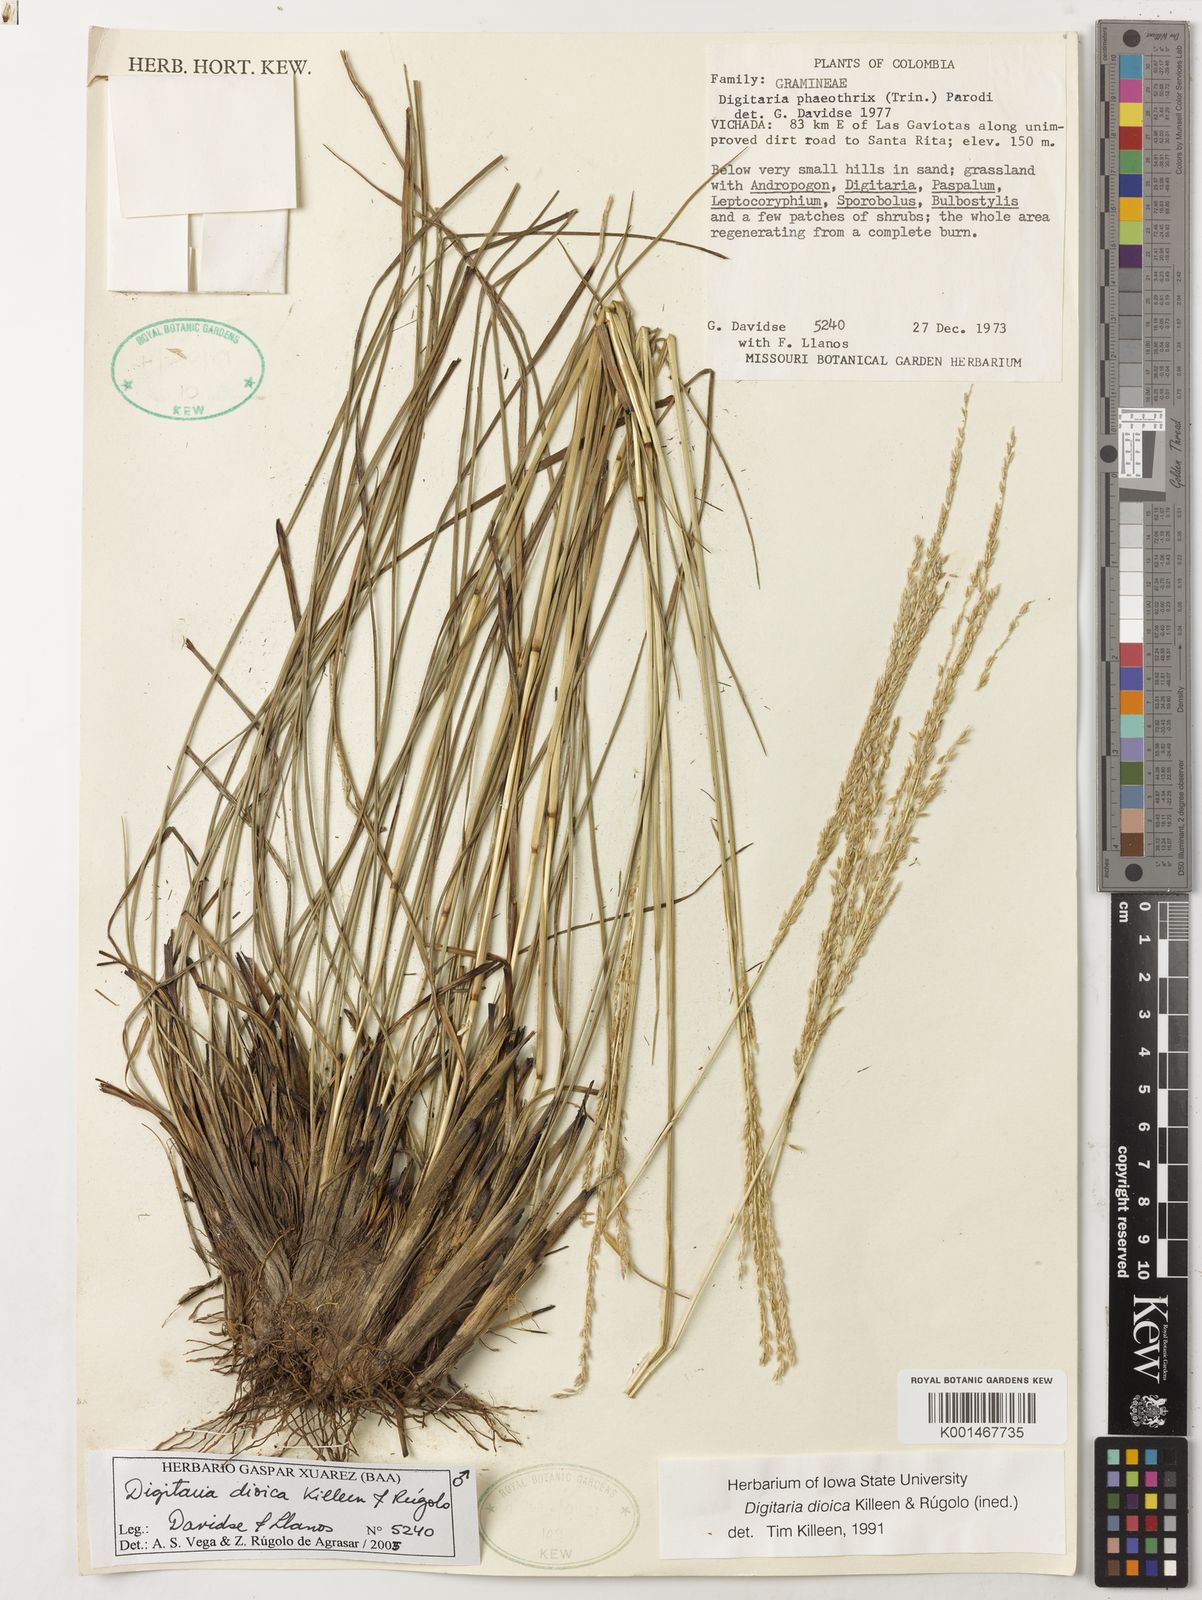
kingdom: Plantae
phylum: Tracheophyta
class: Liliopsida
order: Poales
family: Poaceae
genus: Digitaria
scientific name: Digitaria
